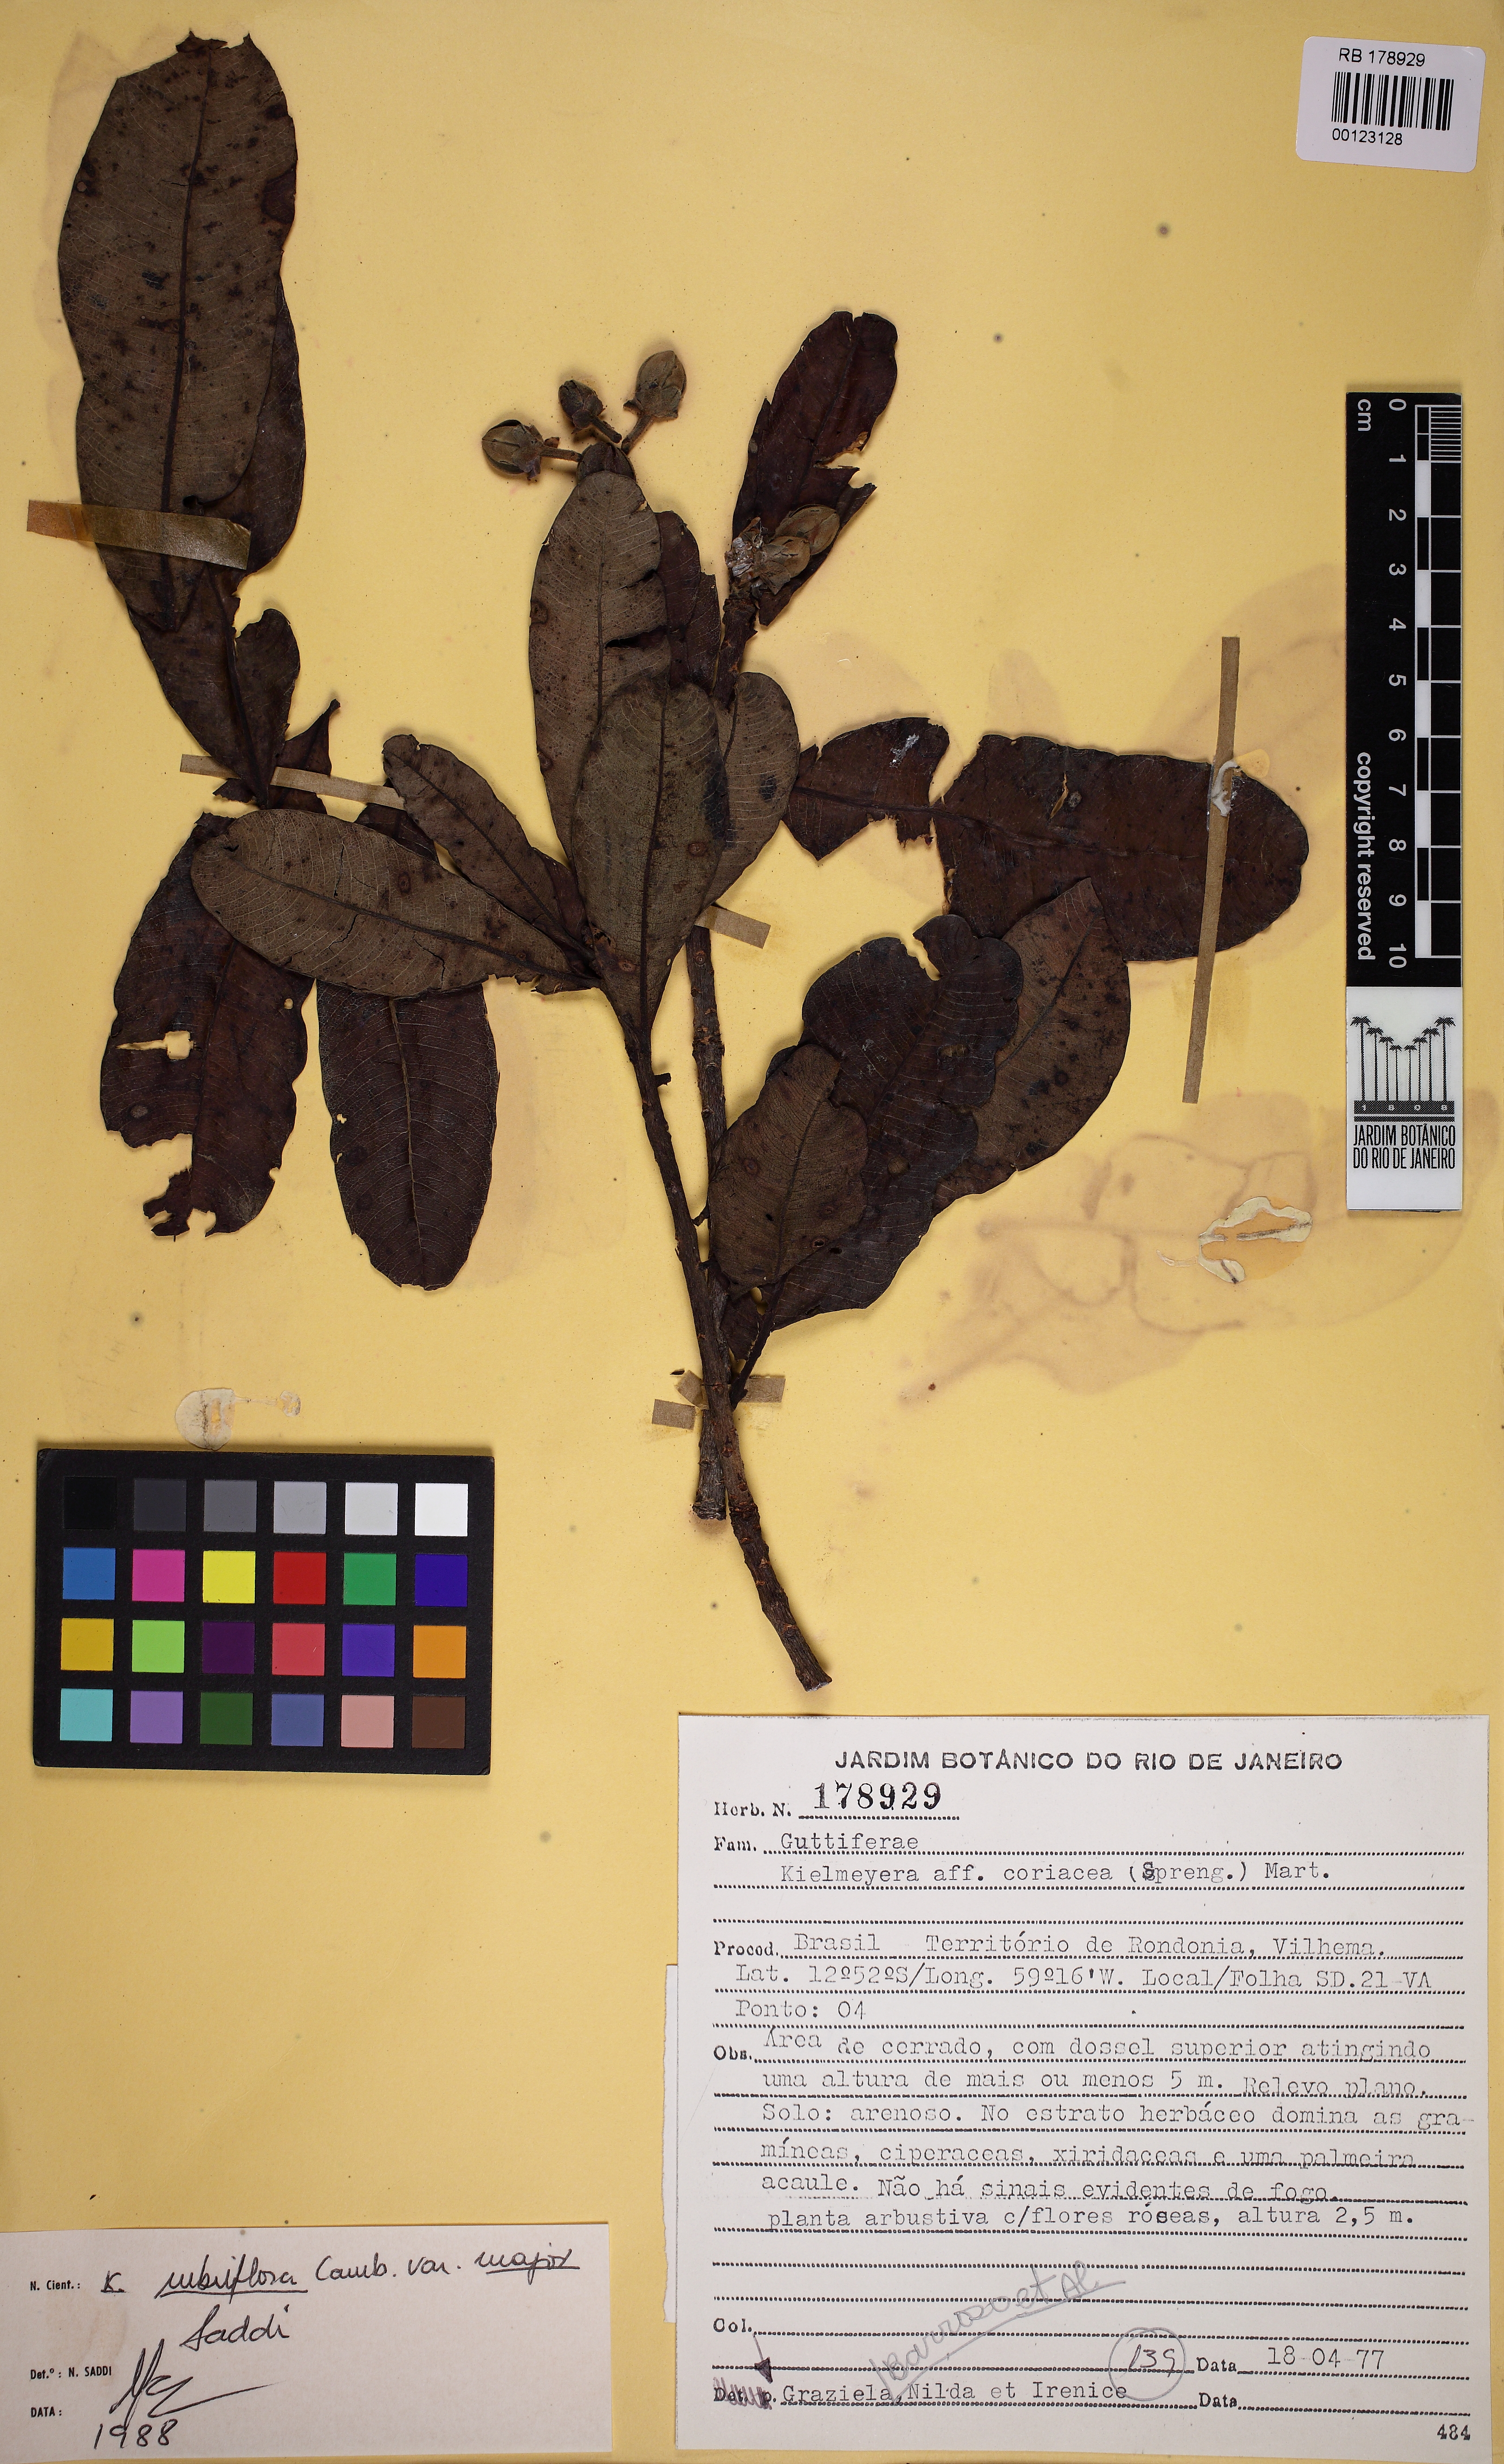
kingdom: Plantae
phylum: Tracheophyta
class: Magnoliopsida
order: Malpighiales
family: Calophyllaceae
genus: Kielmeyera
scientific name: Kielmeyera rubriflora
